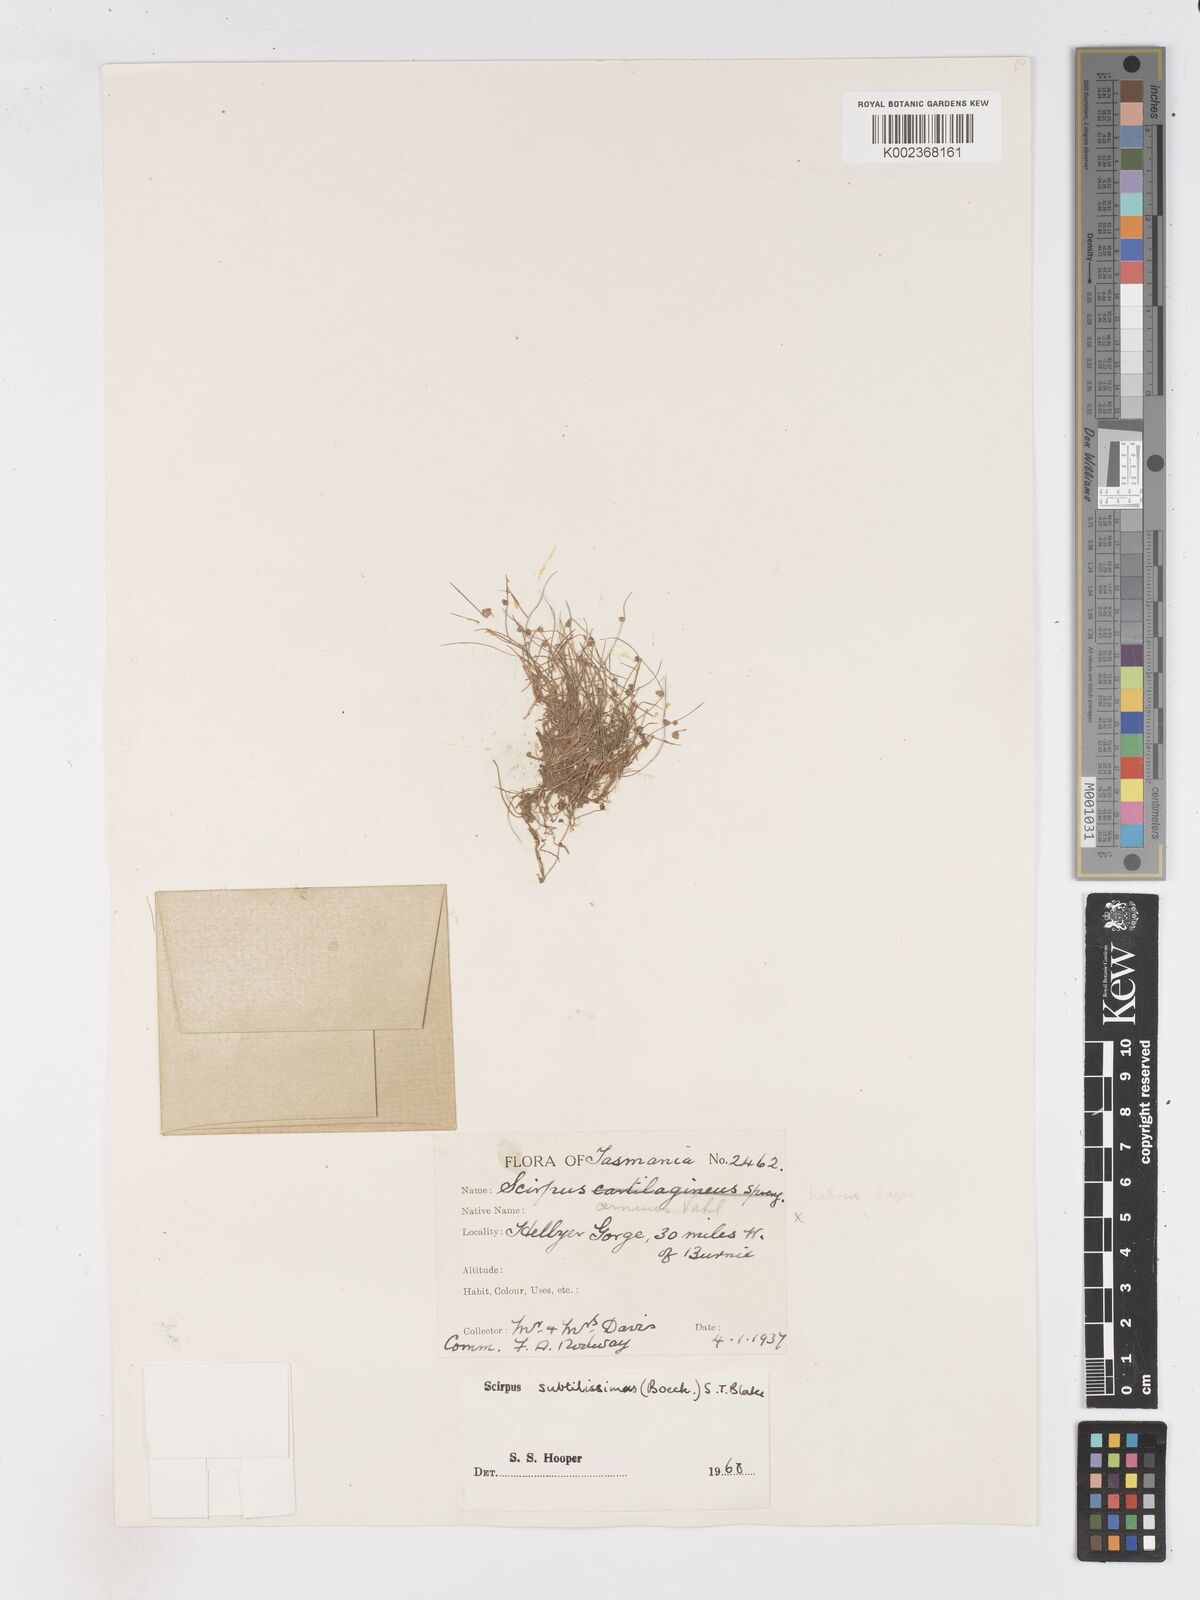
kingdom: Plantae
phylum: Tracheophyta
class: Liliopsida
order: Poales
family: Cyperaceae
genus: Isolepis
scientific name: Isolepis subtilissima
